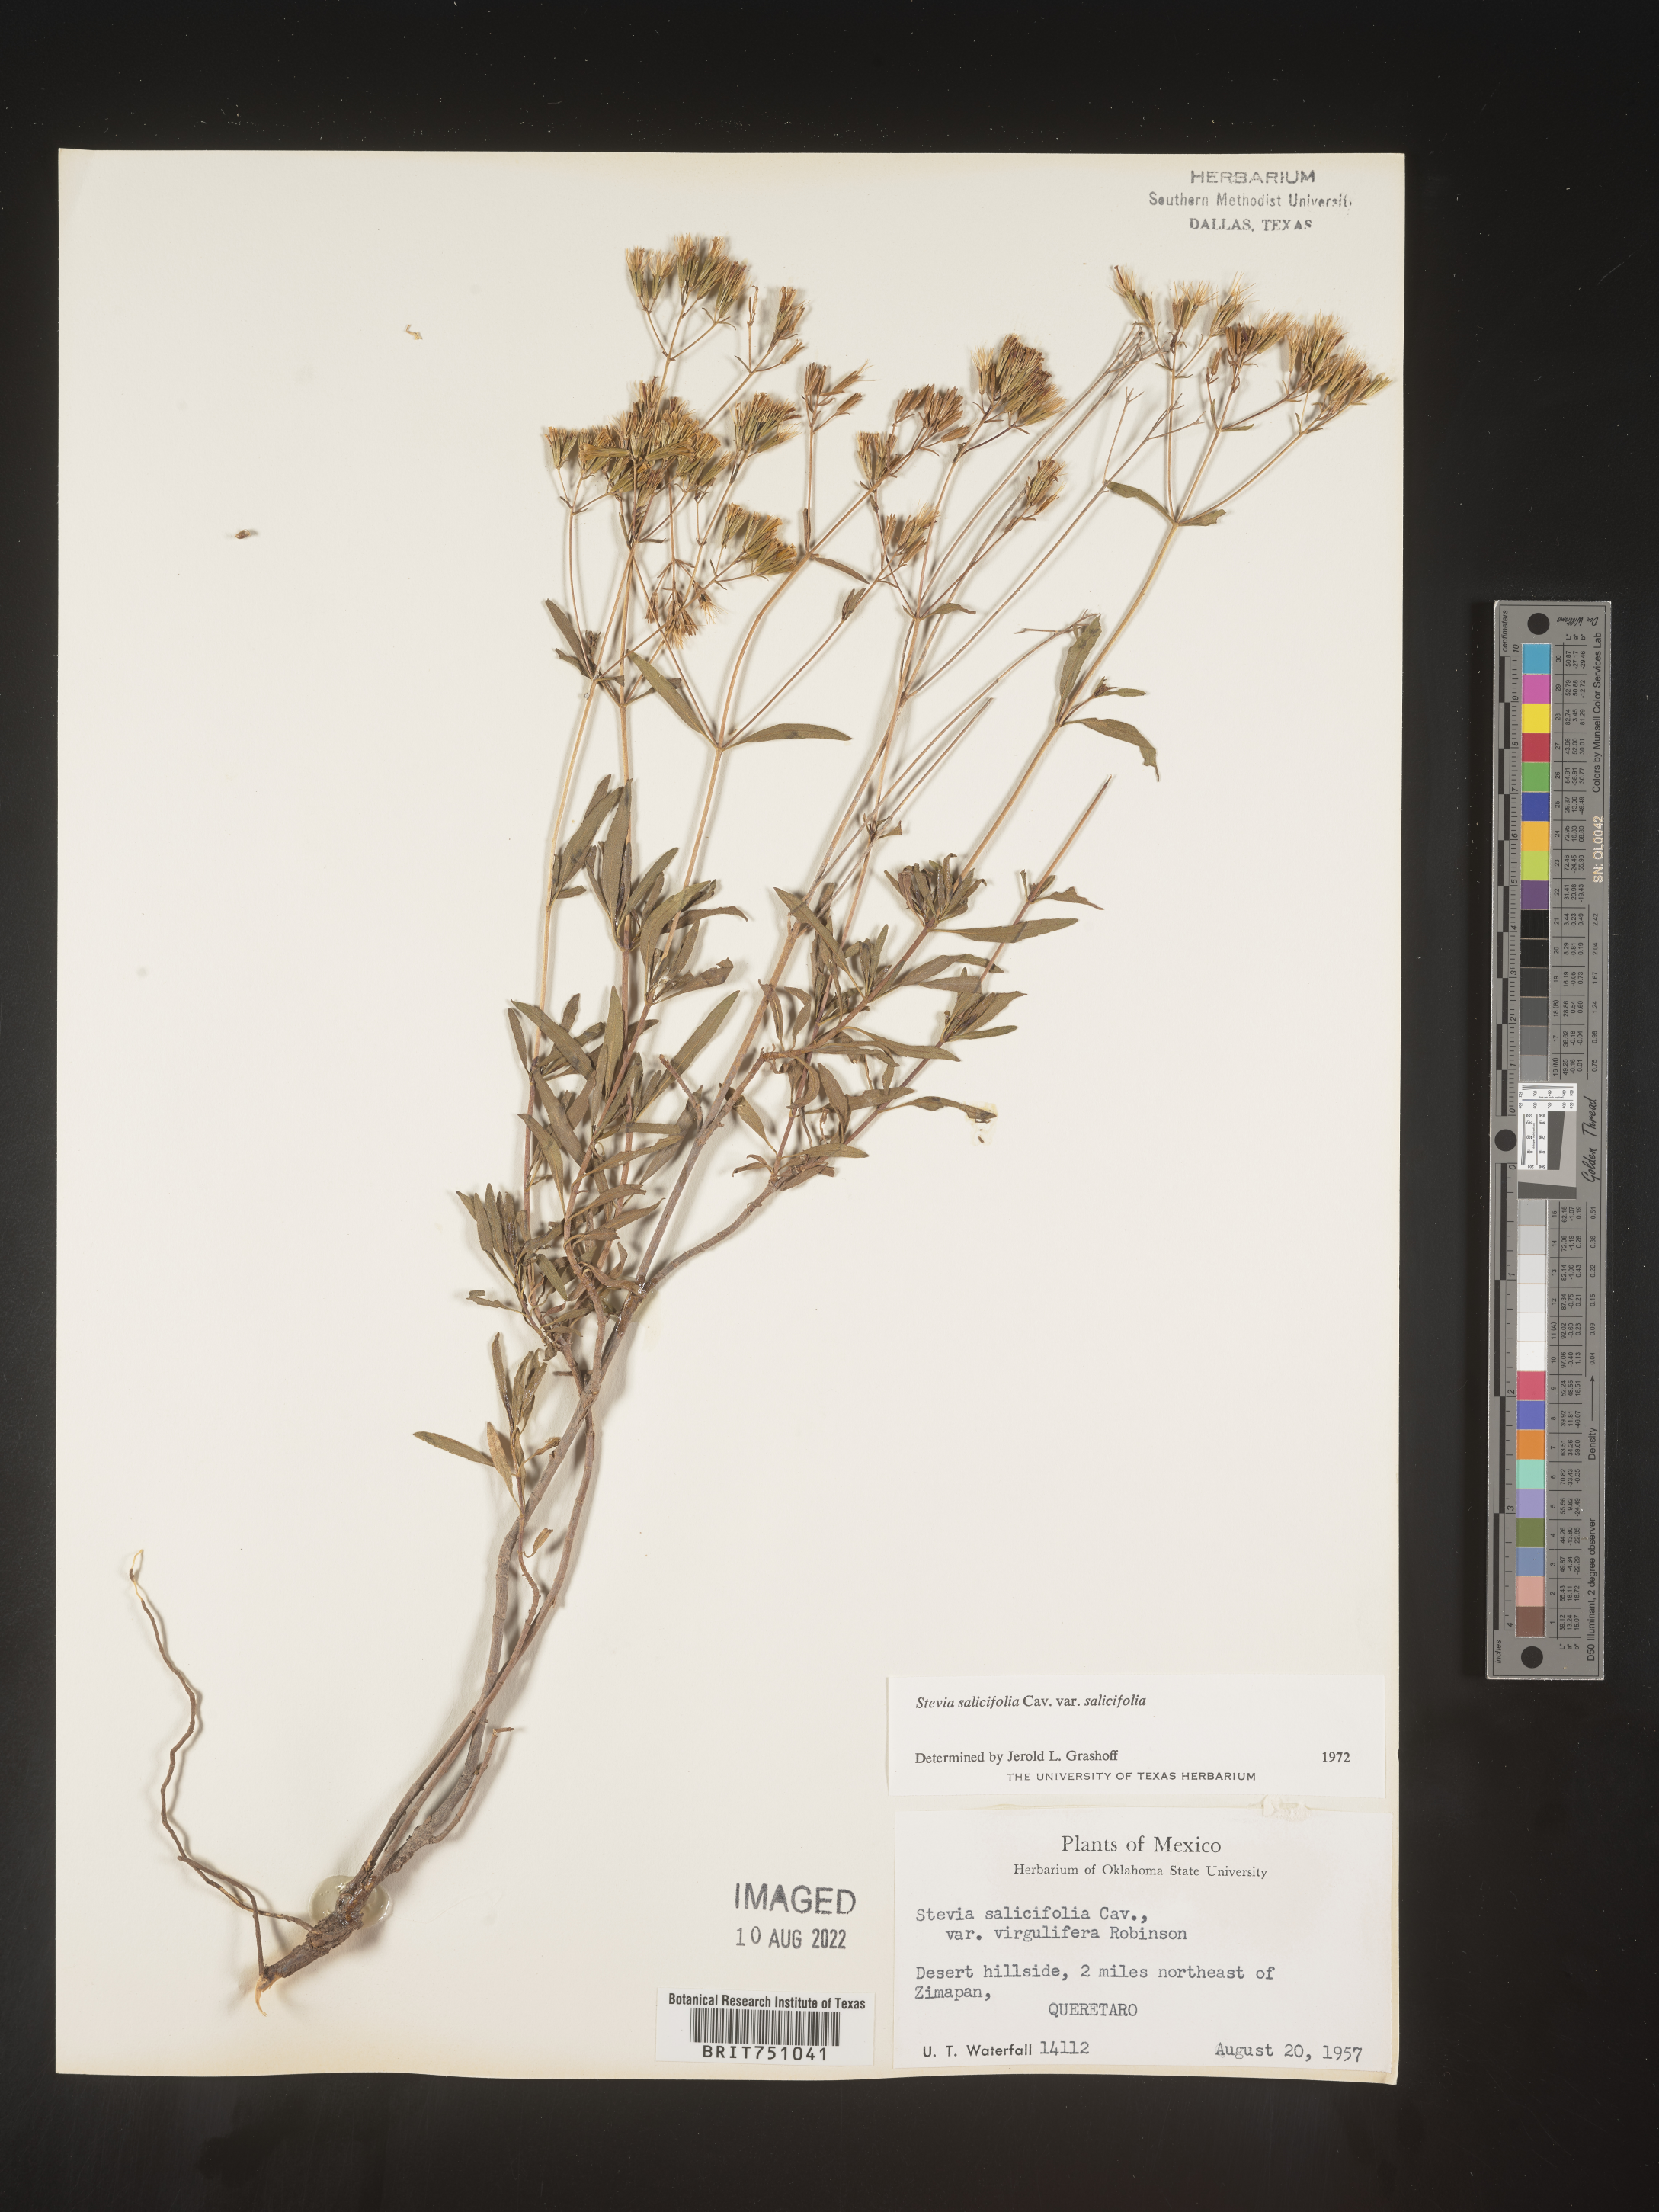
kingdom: Plantae
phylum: Tracheophyta
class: Magnoliopsida
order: Asterales
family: Asteraceae
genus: Stevia
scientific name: Stevia salicifolia
